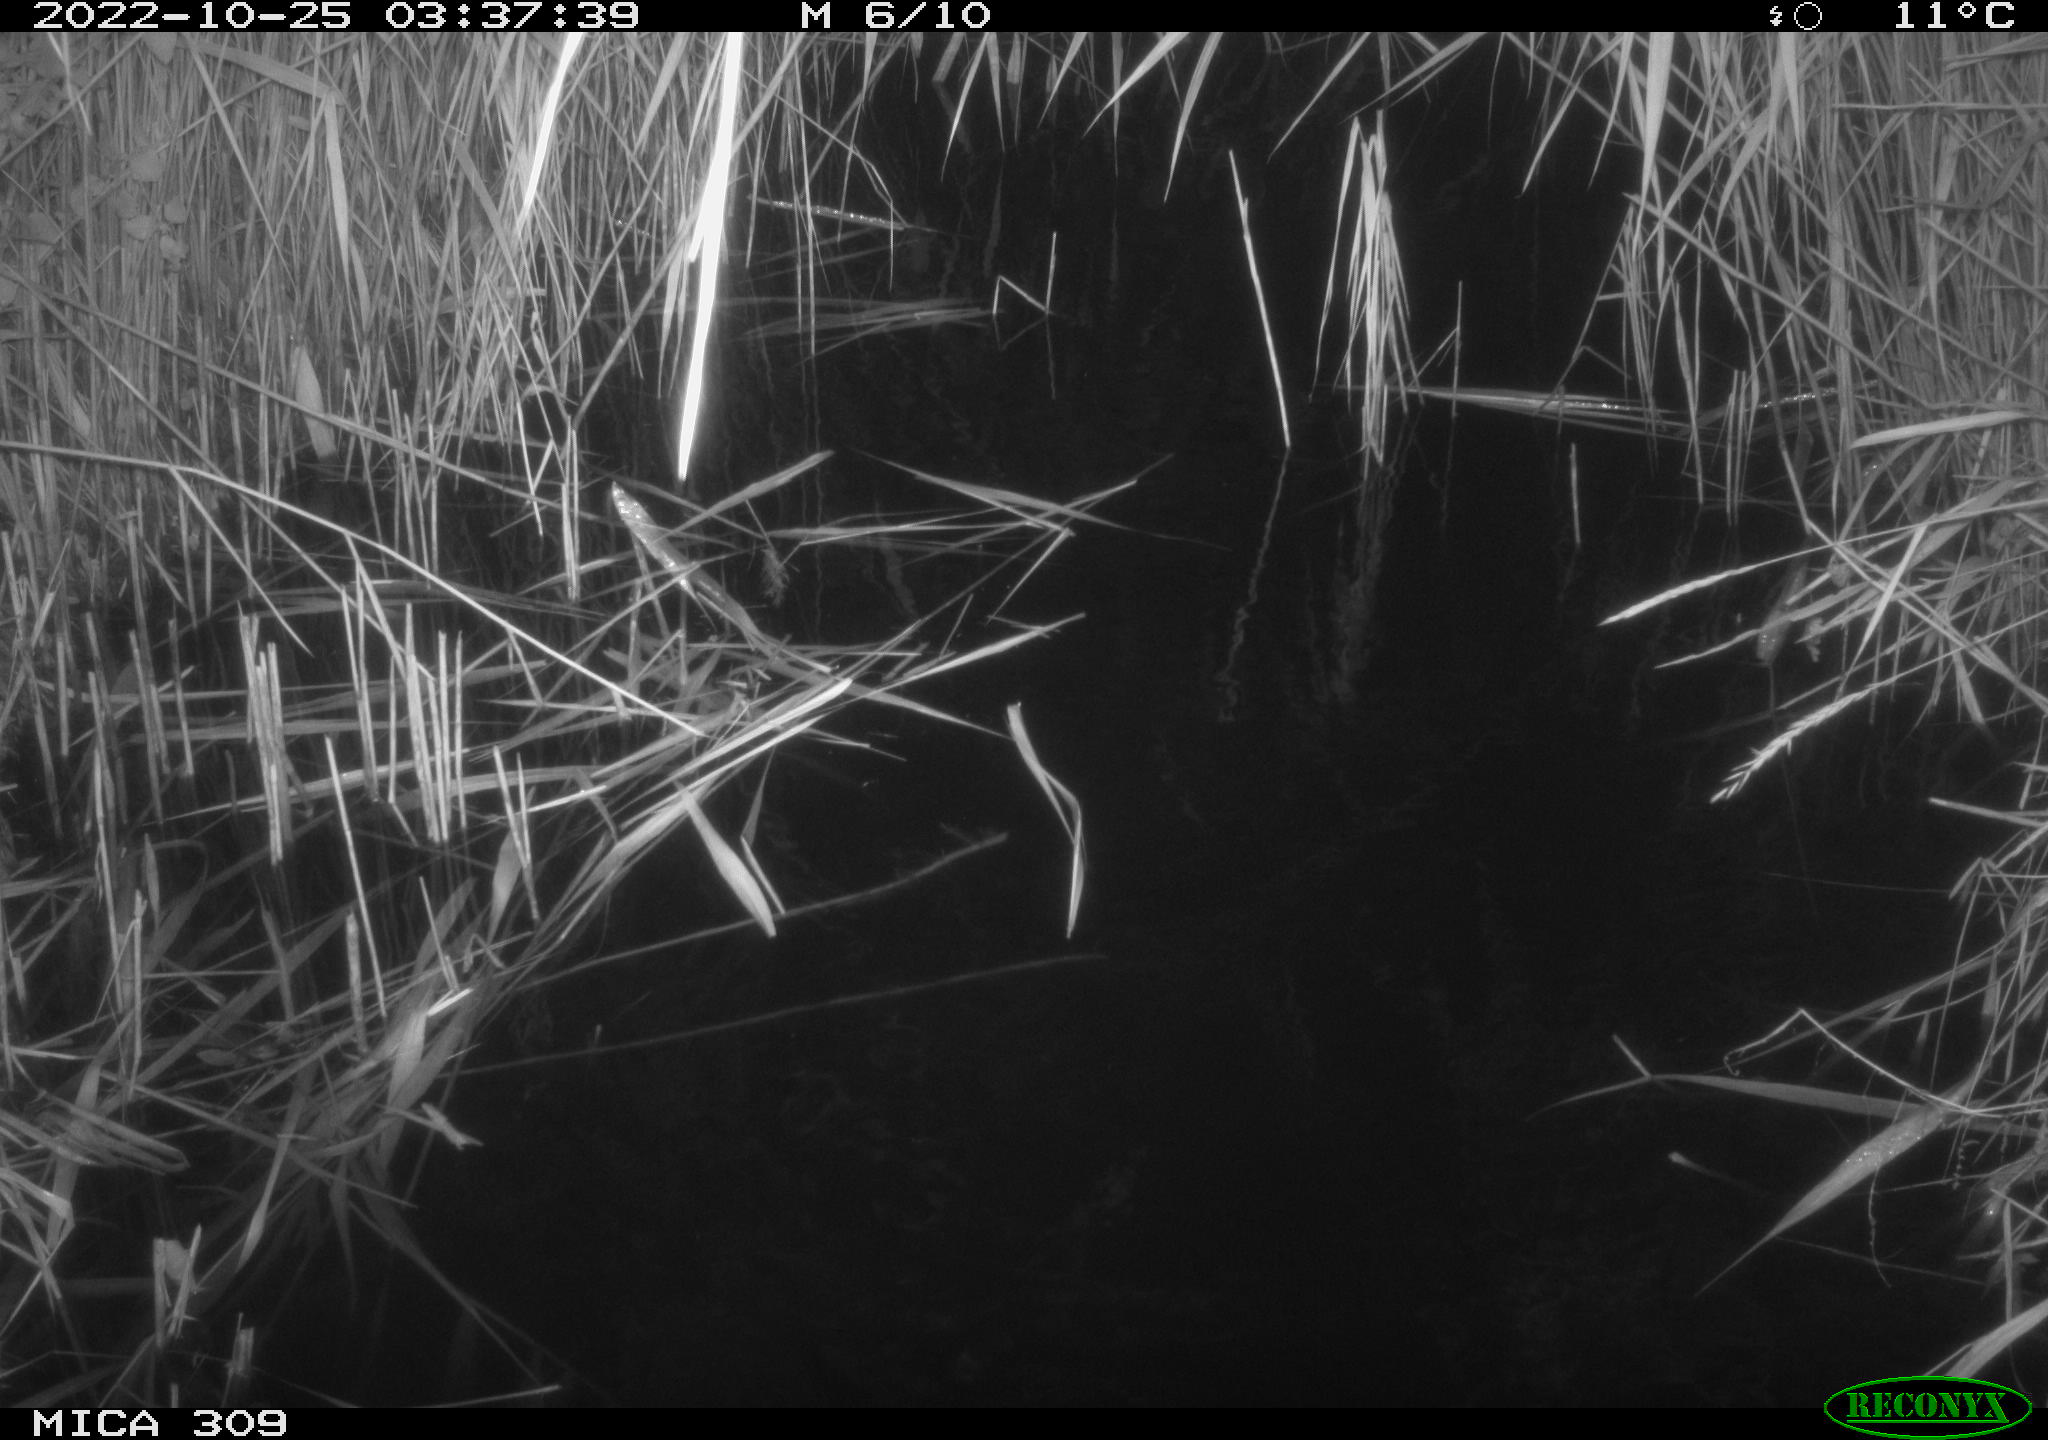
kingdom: Animalia
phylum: Chordata
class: Mammalia
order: Rodentia
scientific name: Rodentia
